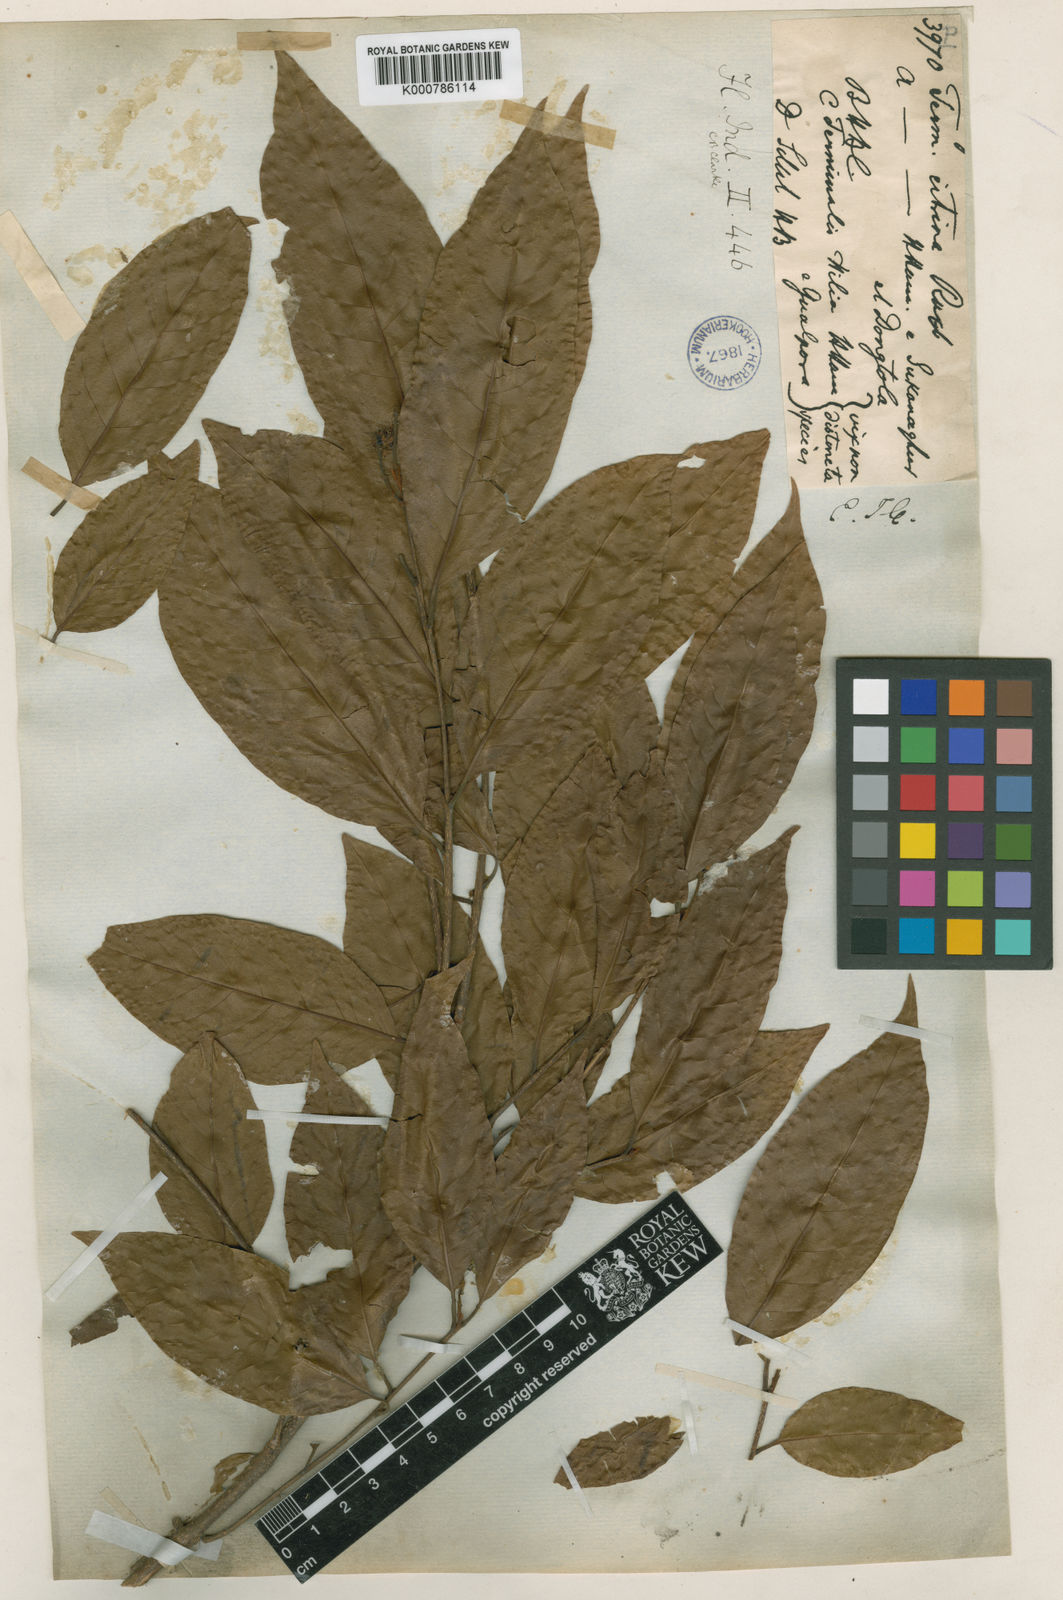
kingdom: Plantae
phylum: Tracheophyta
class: Magnoliopsida
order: Myrtales
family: Combretaceae
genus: Terminalia
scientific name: Terminalia
